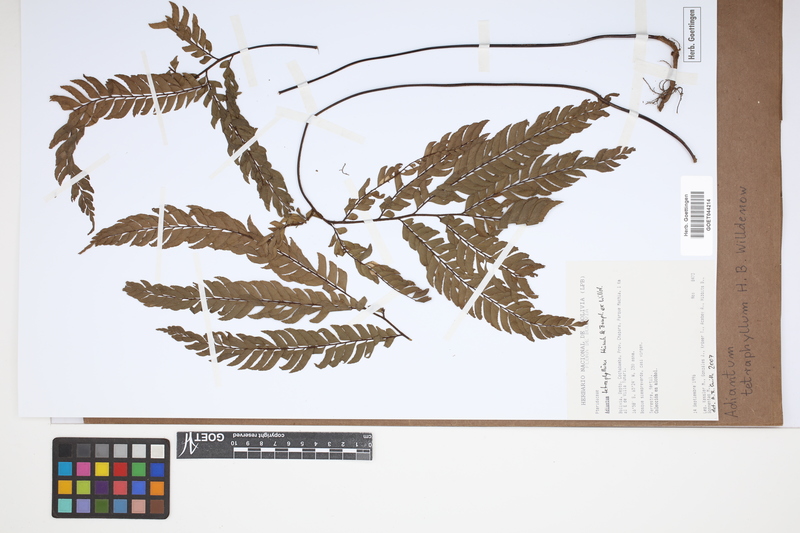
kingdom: Plantae
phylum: Tracheophyta
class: Polypodiopsida
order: Polypodiales
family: Pteridaceae
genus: Adiantum
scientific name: Adiantum tetraphyllum
